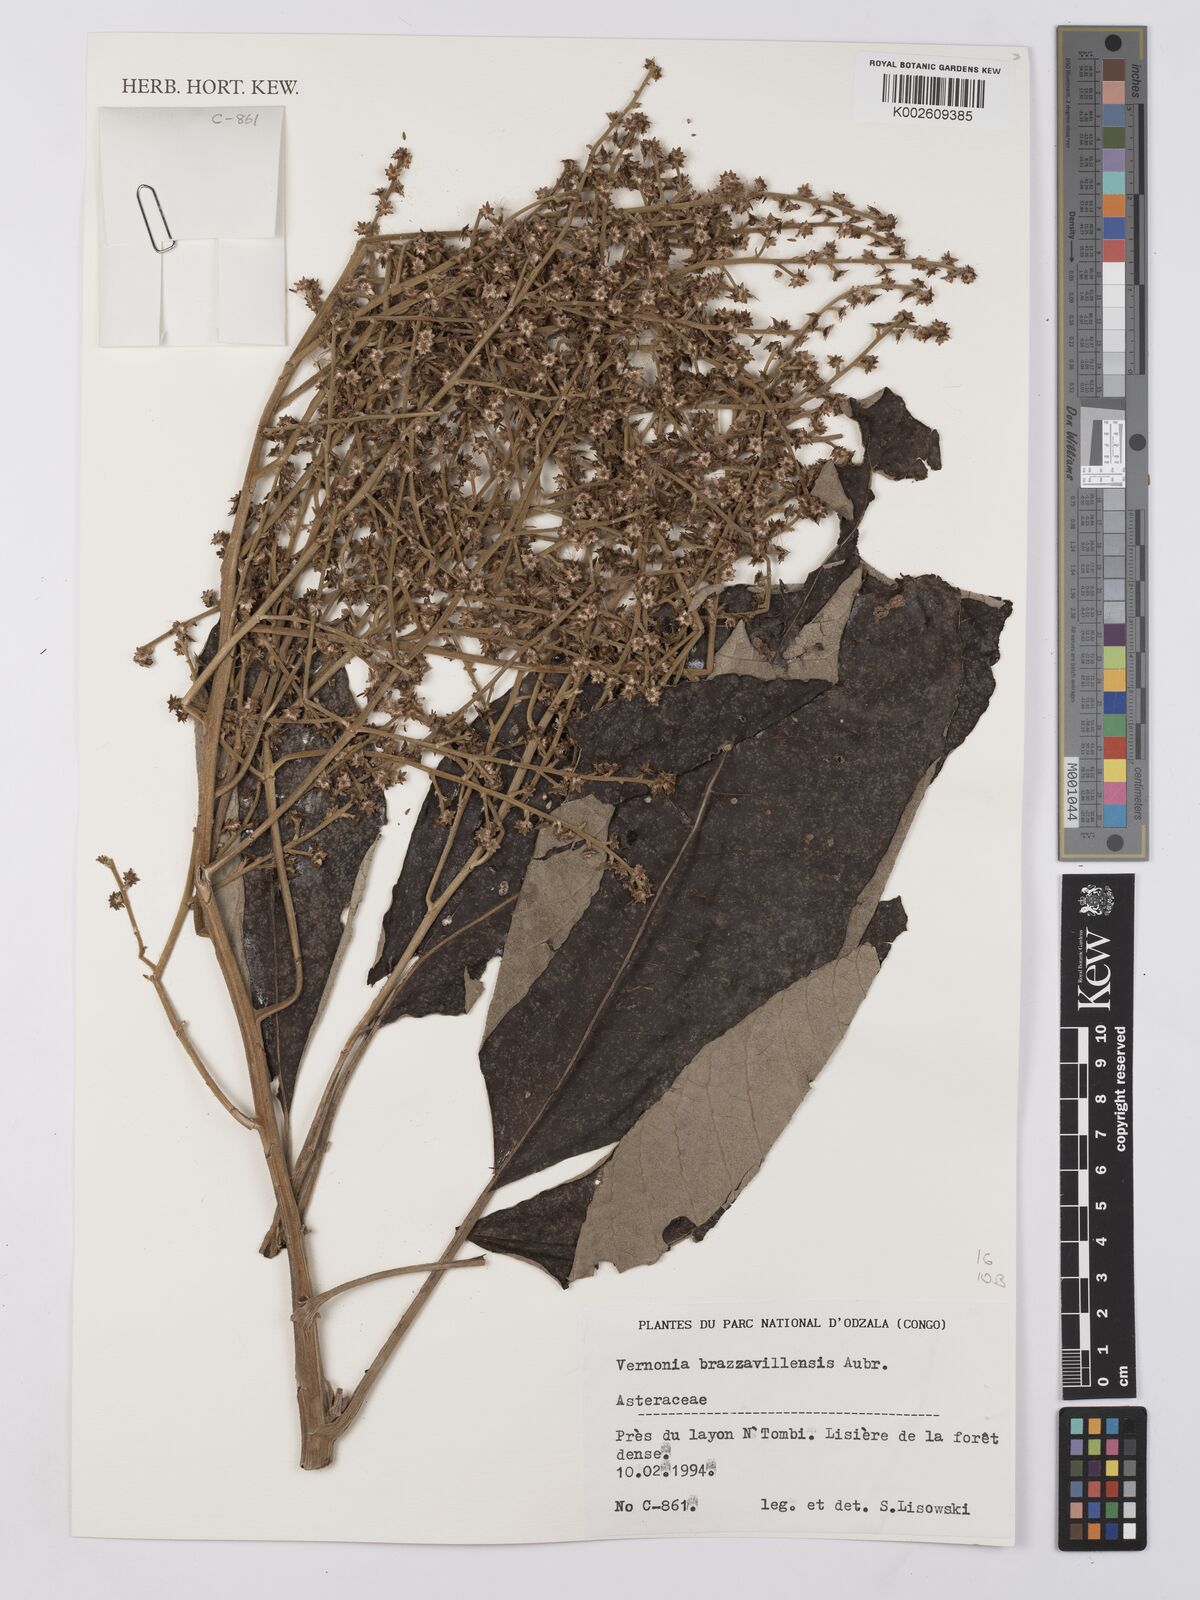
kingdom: Plantae
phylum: Tracheophyta
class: Magnoliopsida
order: Asterales
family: Asteraceae
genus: Vernonia
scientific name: Vernonia brazzavillensis
